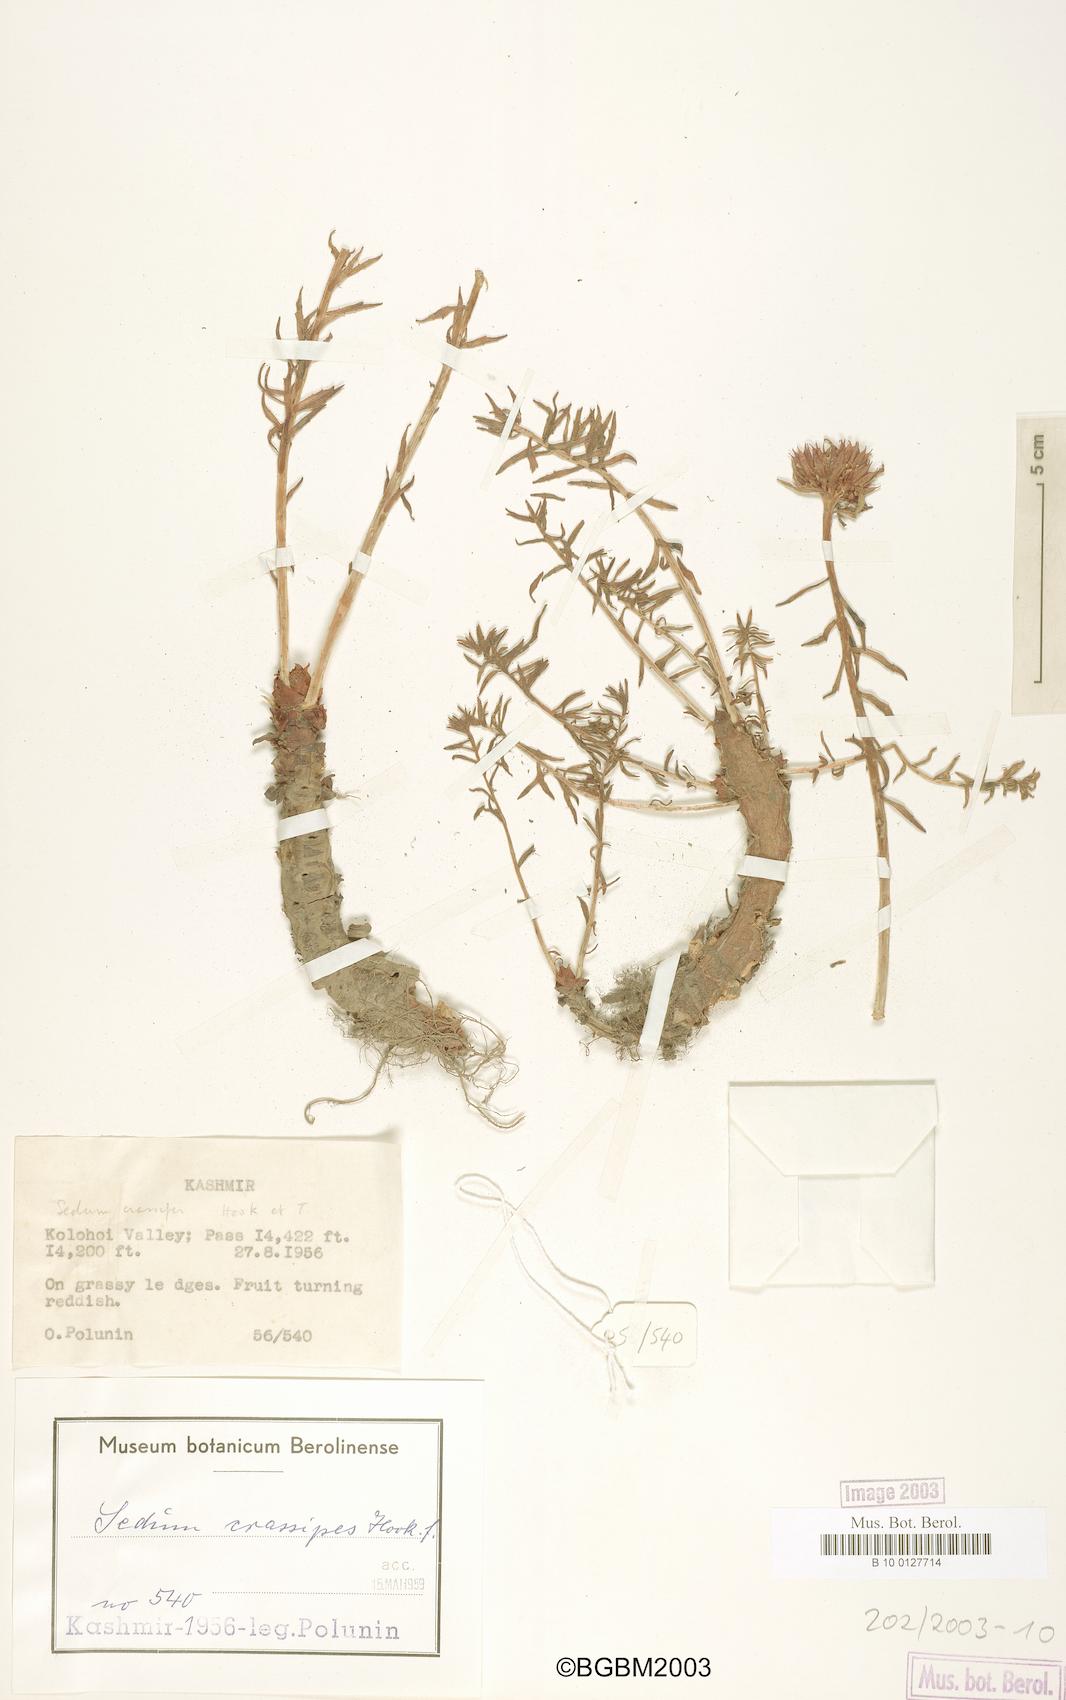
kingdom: Plantae
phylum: Tracheophyta
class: Magnoliopsida
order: Saxifragales
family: Crassulaceae
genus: Rhodiola
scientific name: Rhodiola wallichiana
